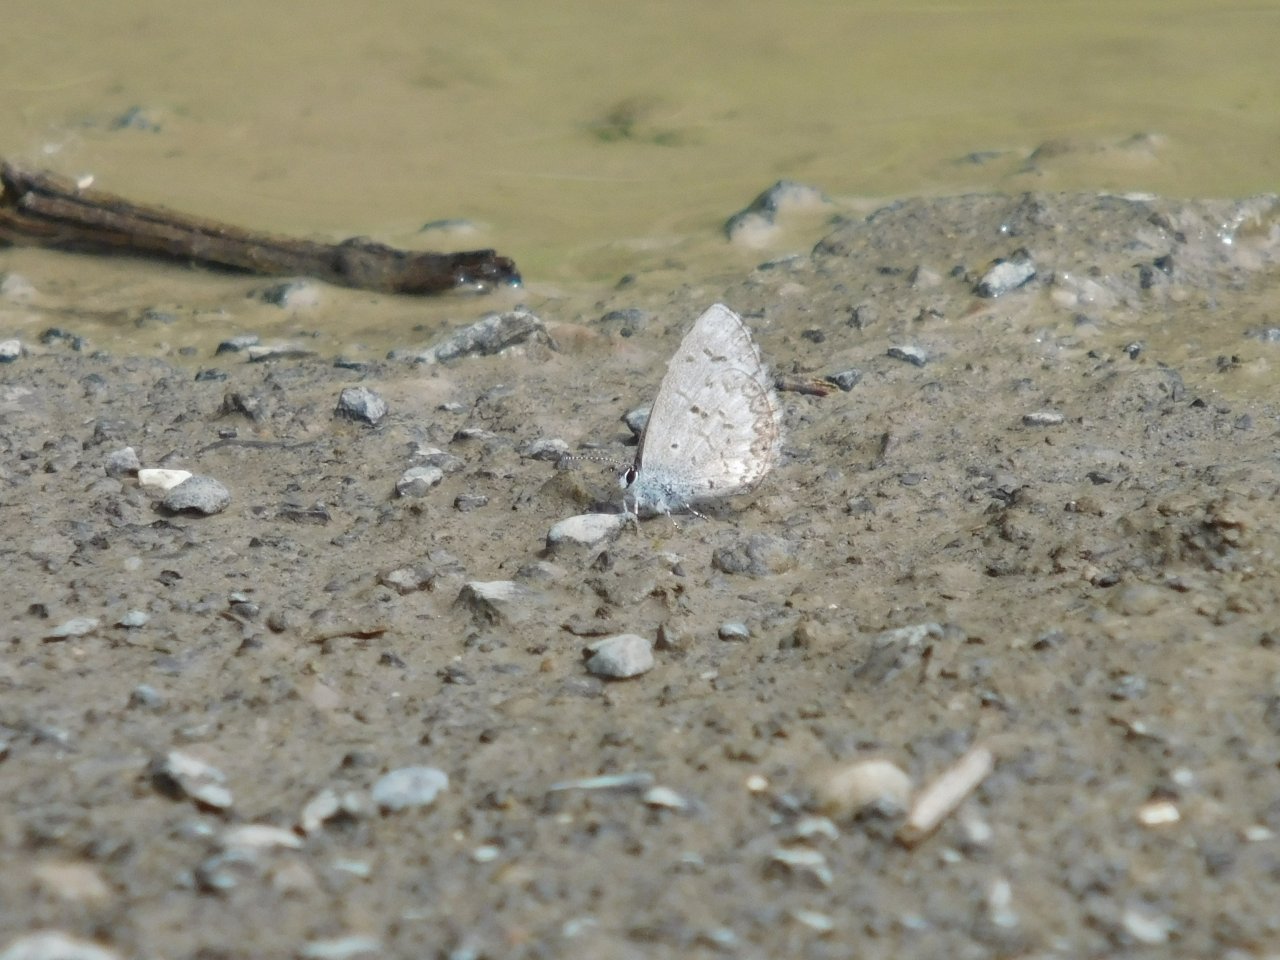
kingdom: Animalia
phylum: Arthropoda
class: Insecta
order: Lepidoptera
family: Lycaenidae
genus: Celastrina
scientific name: Celastrina lucia
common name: Northern Spring Azure
